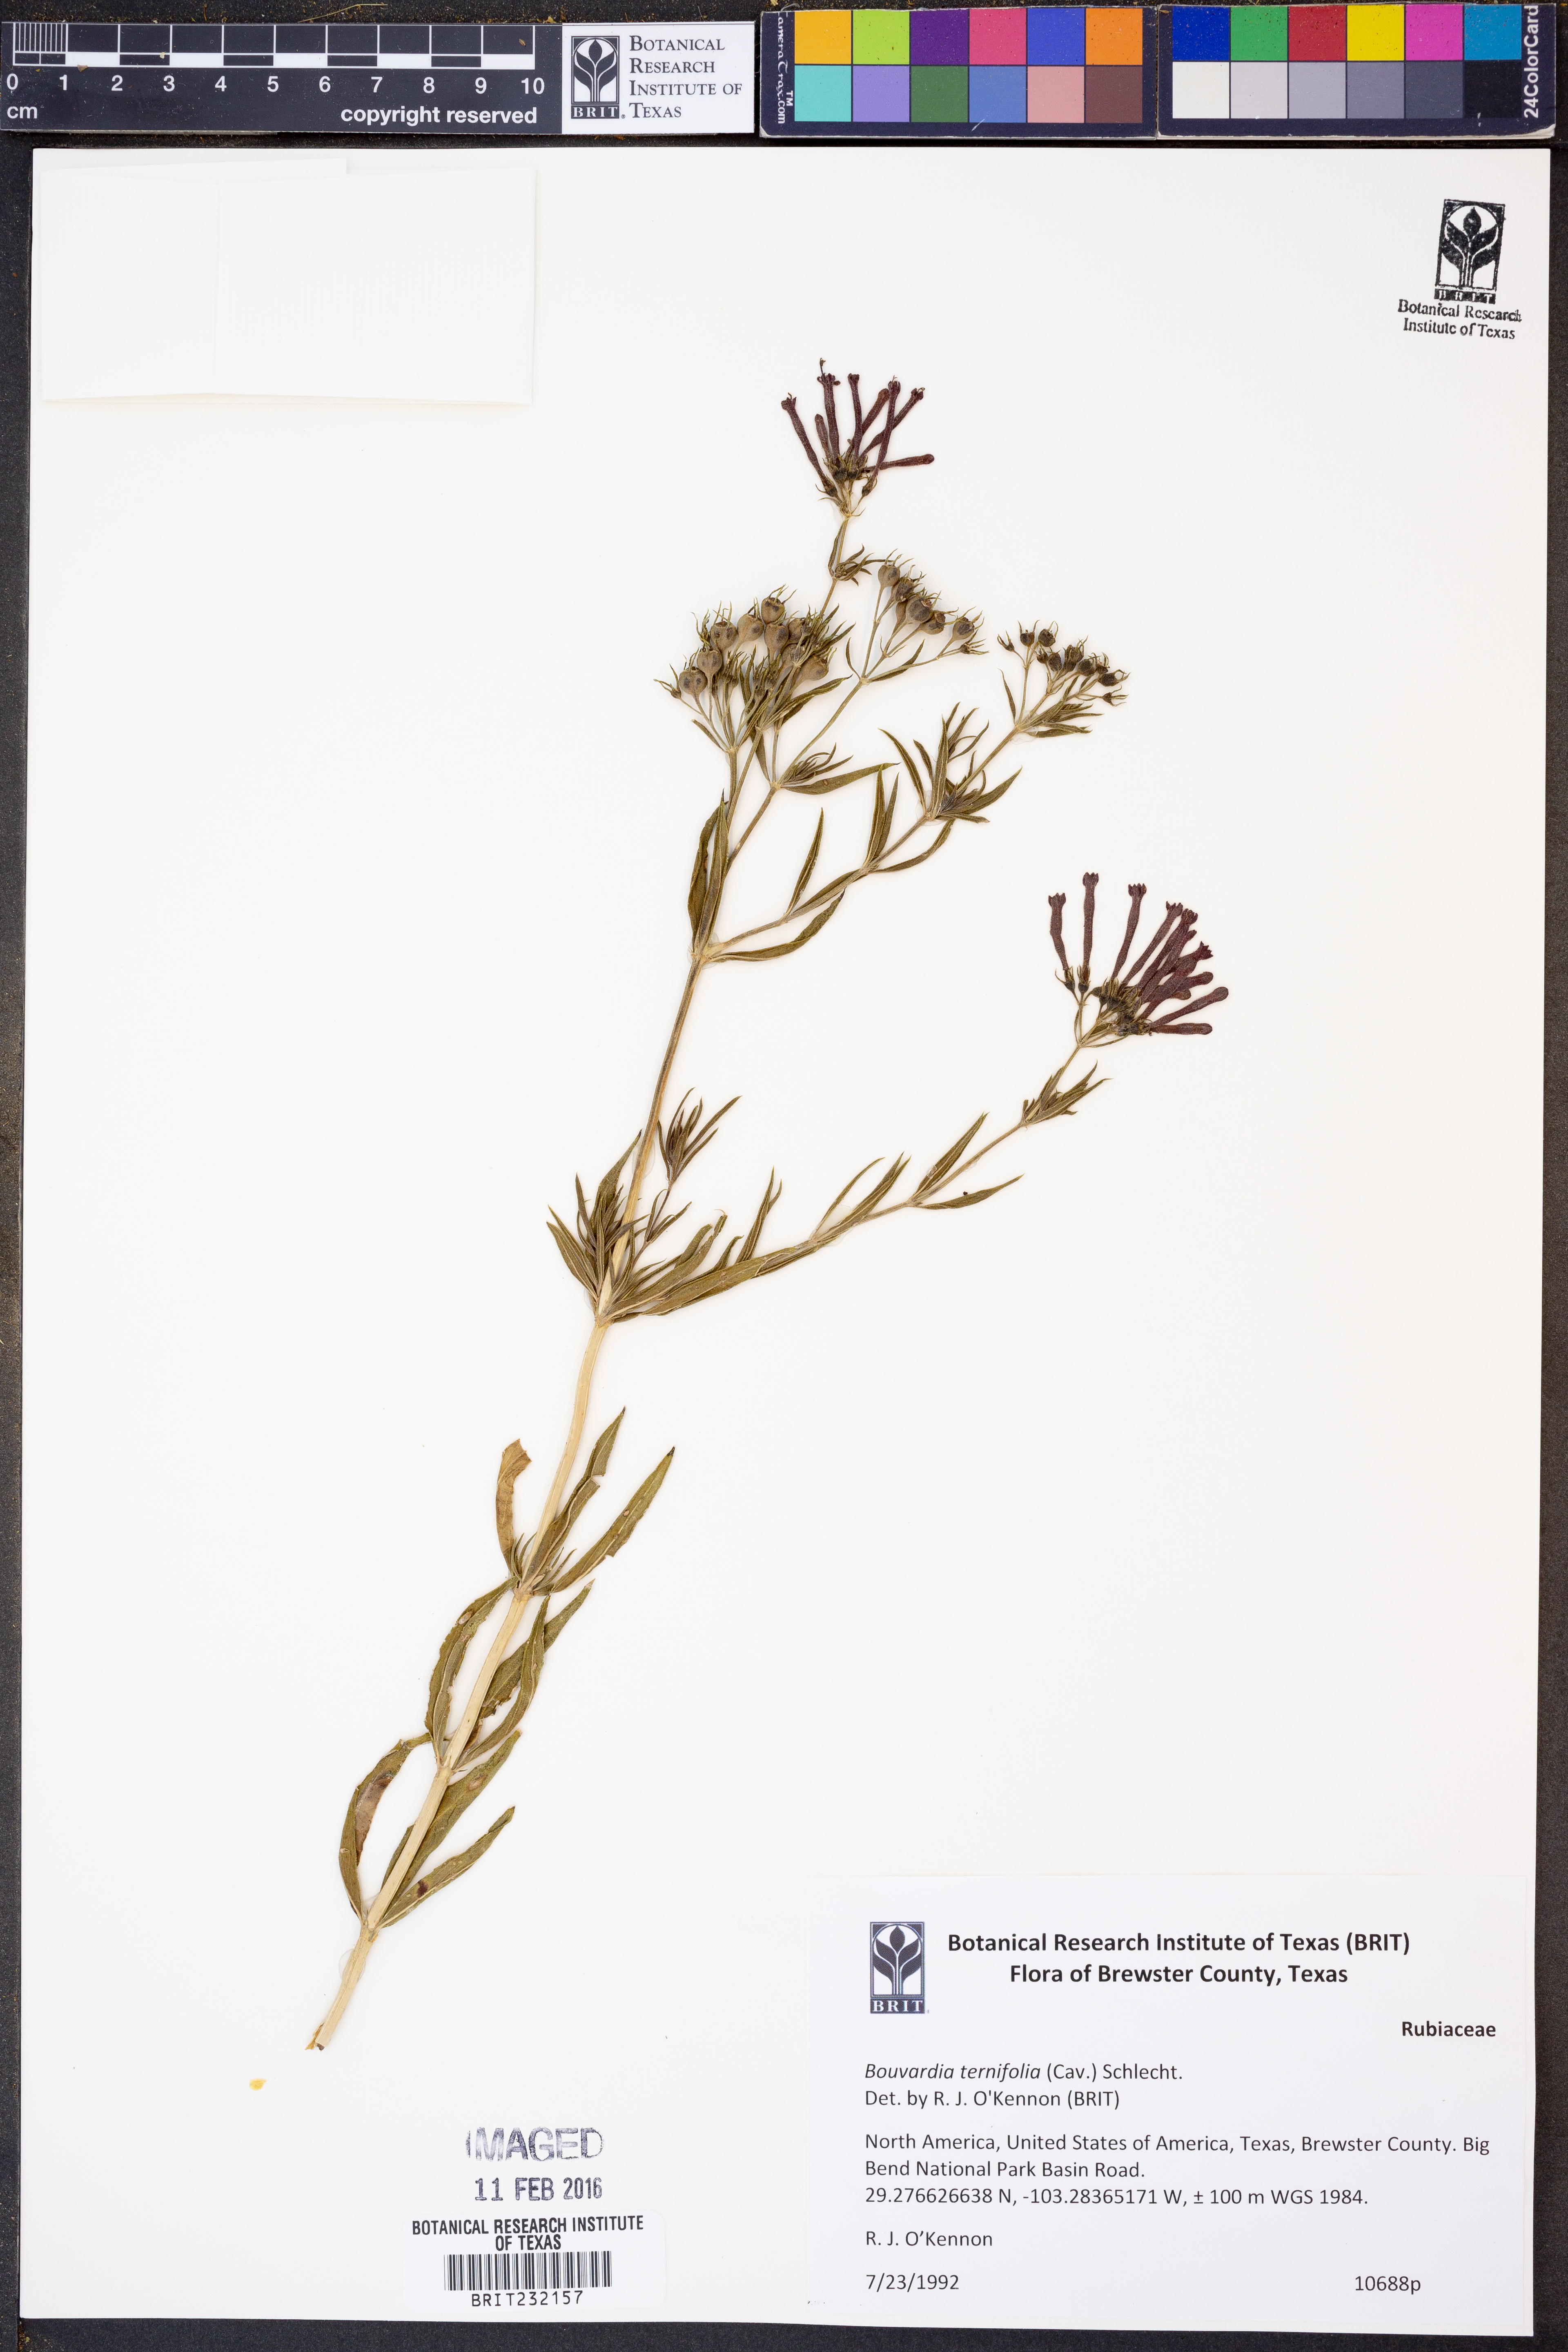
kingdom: Plantae
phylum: Tracheophyta
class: Magnoliopsida
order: Gentianales
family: Rubiaceae
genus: Bouvardia
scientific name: Bouvardia ternifolia
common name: Scarlet bouvardia
